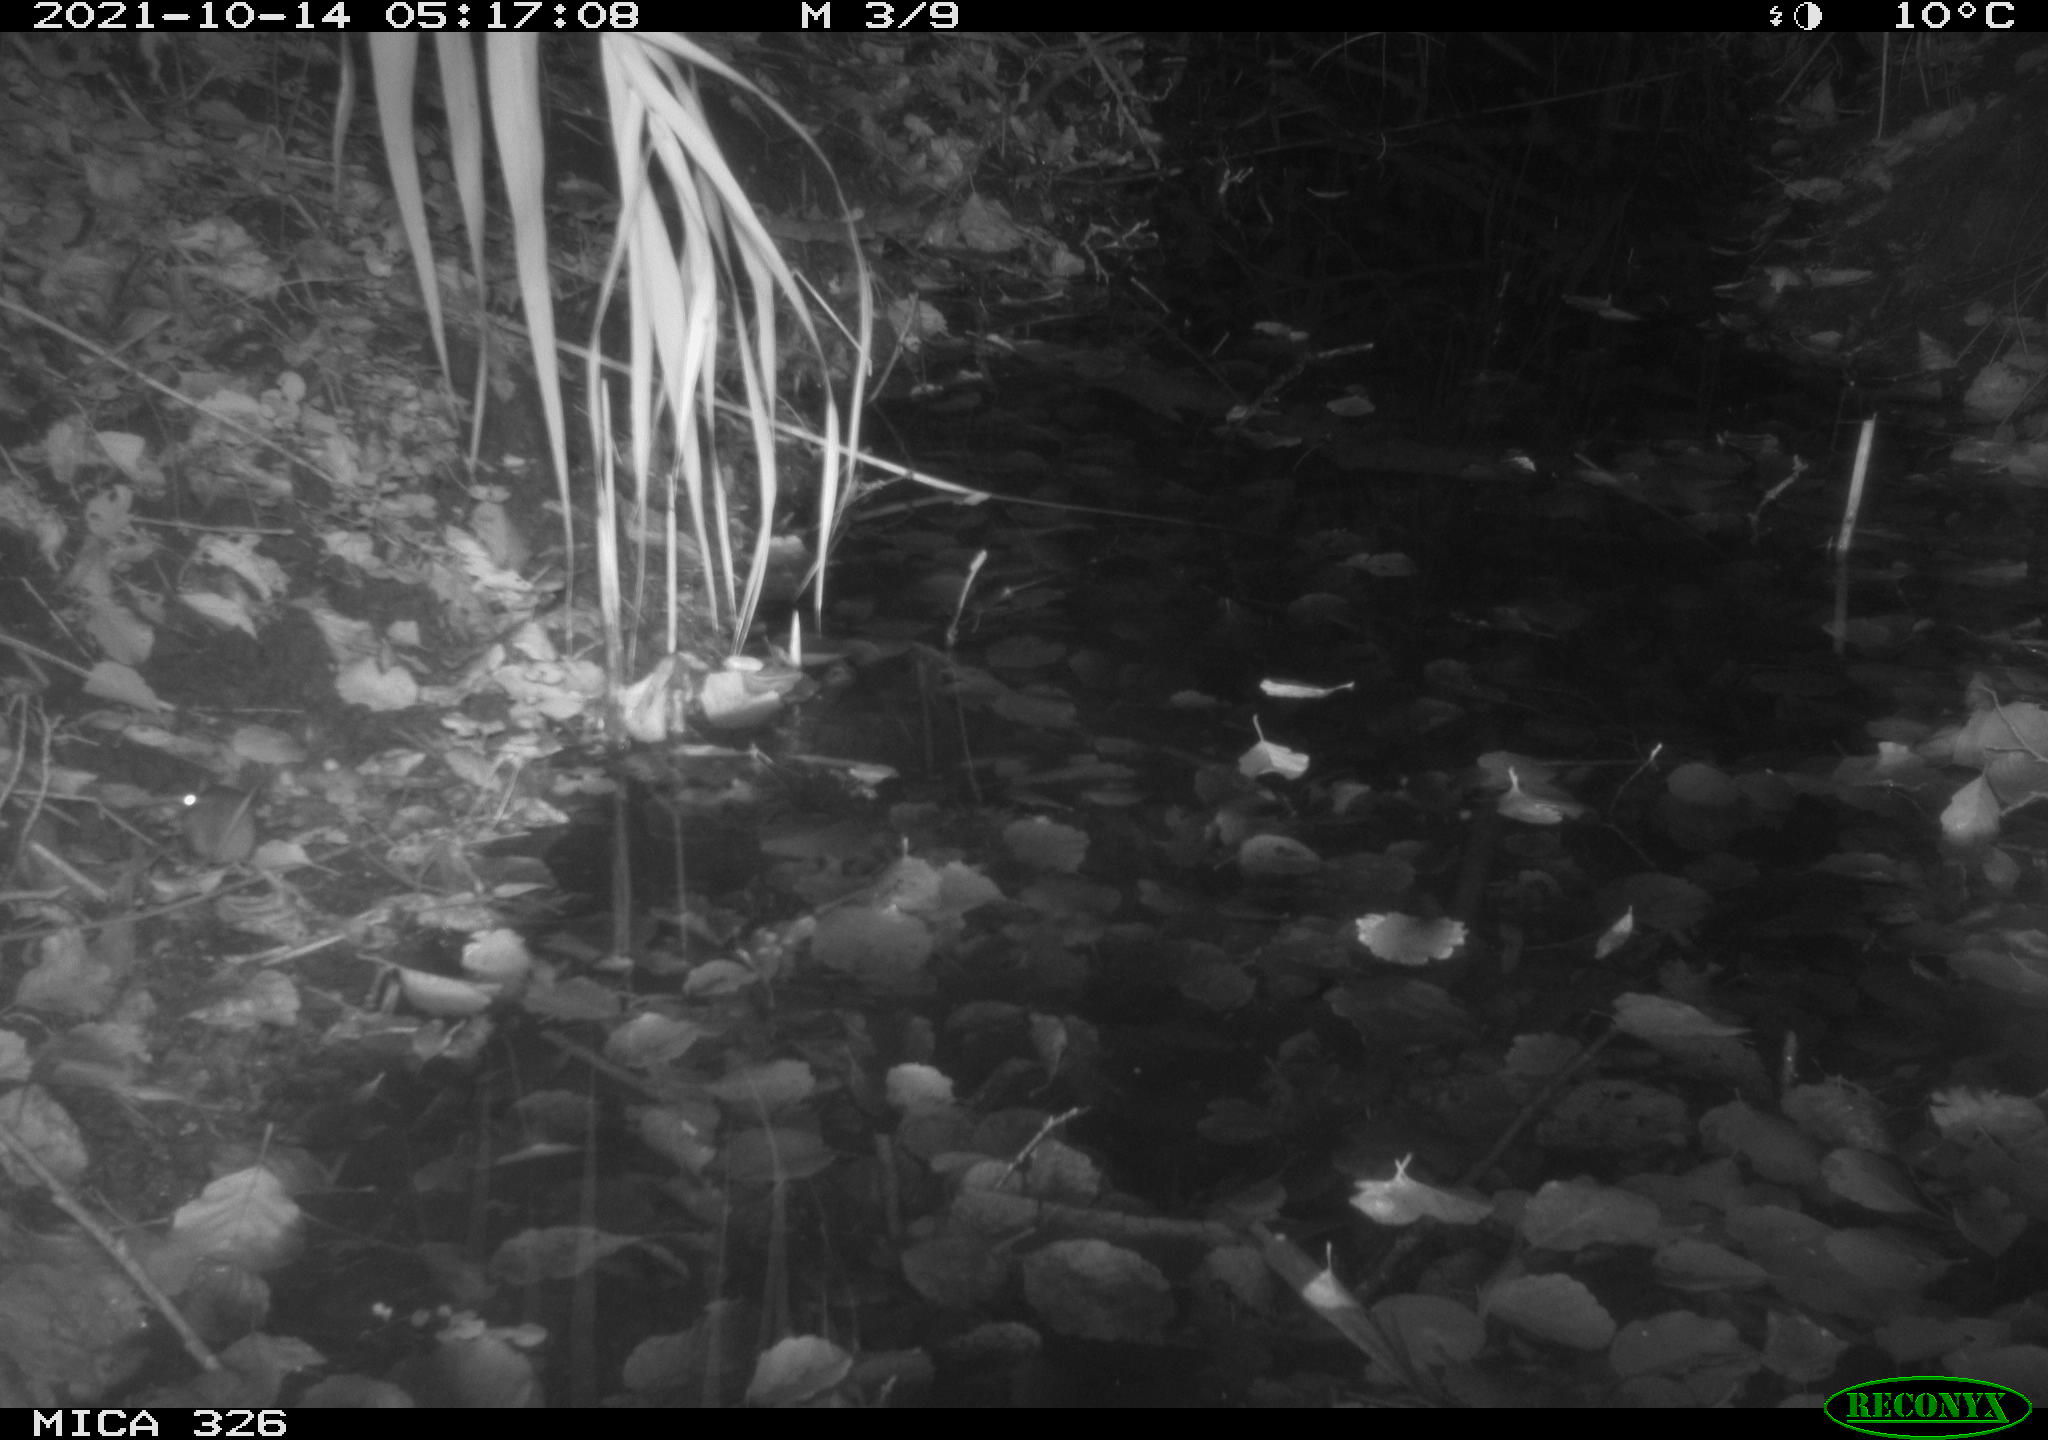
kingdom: Animalia
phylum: Chordata
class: Mammalia
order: Rodentia
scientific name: Rodentia
